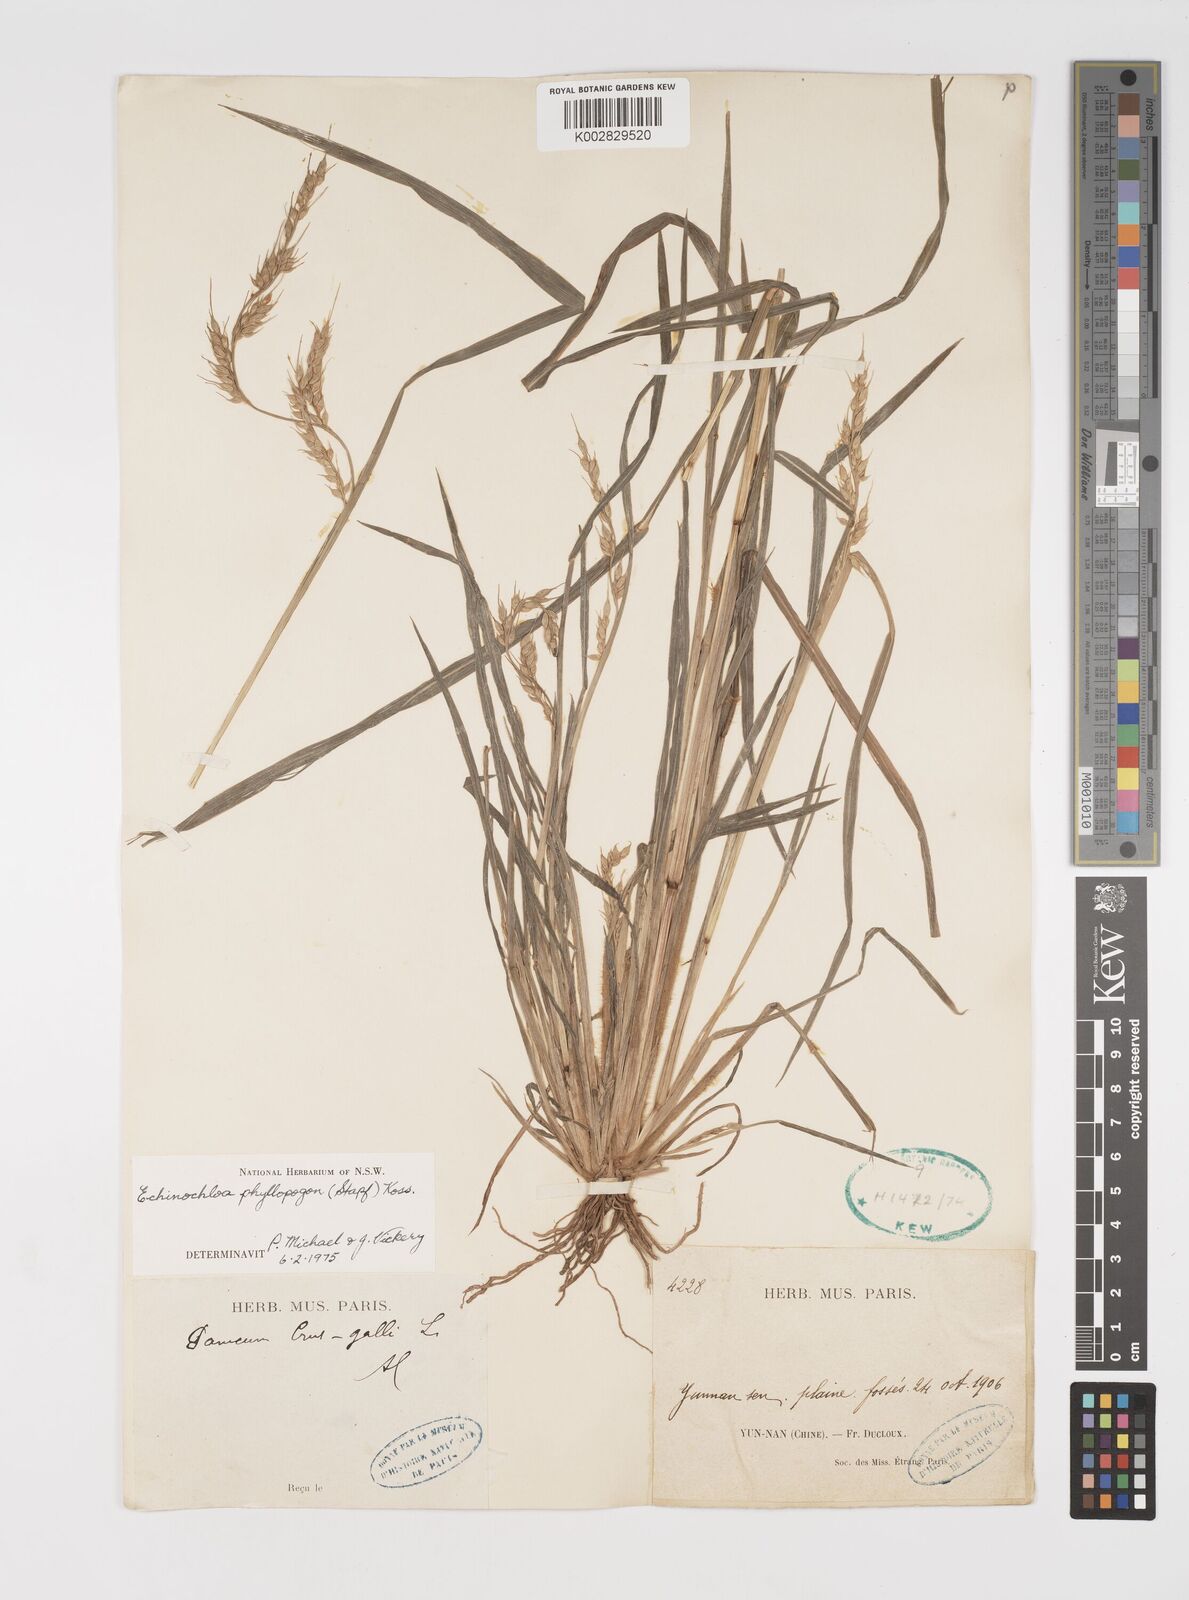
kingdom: Plantae
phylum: Tracheophyta
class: Liliopsida
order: Poales
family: Poaceae
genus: Echinochloa
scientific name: Echinochloa oryzoides
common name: Early water grass
